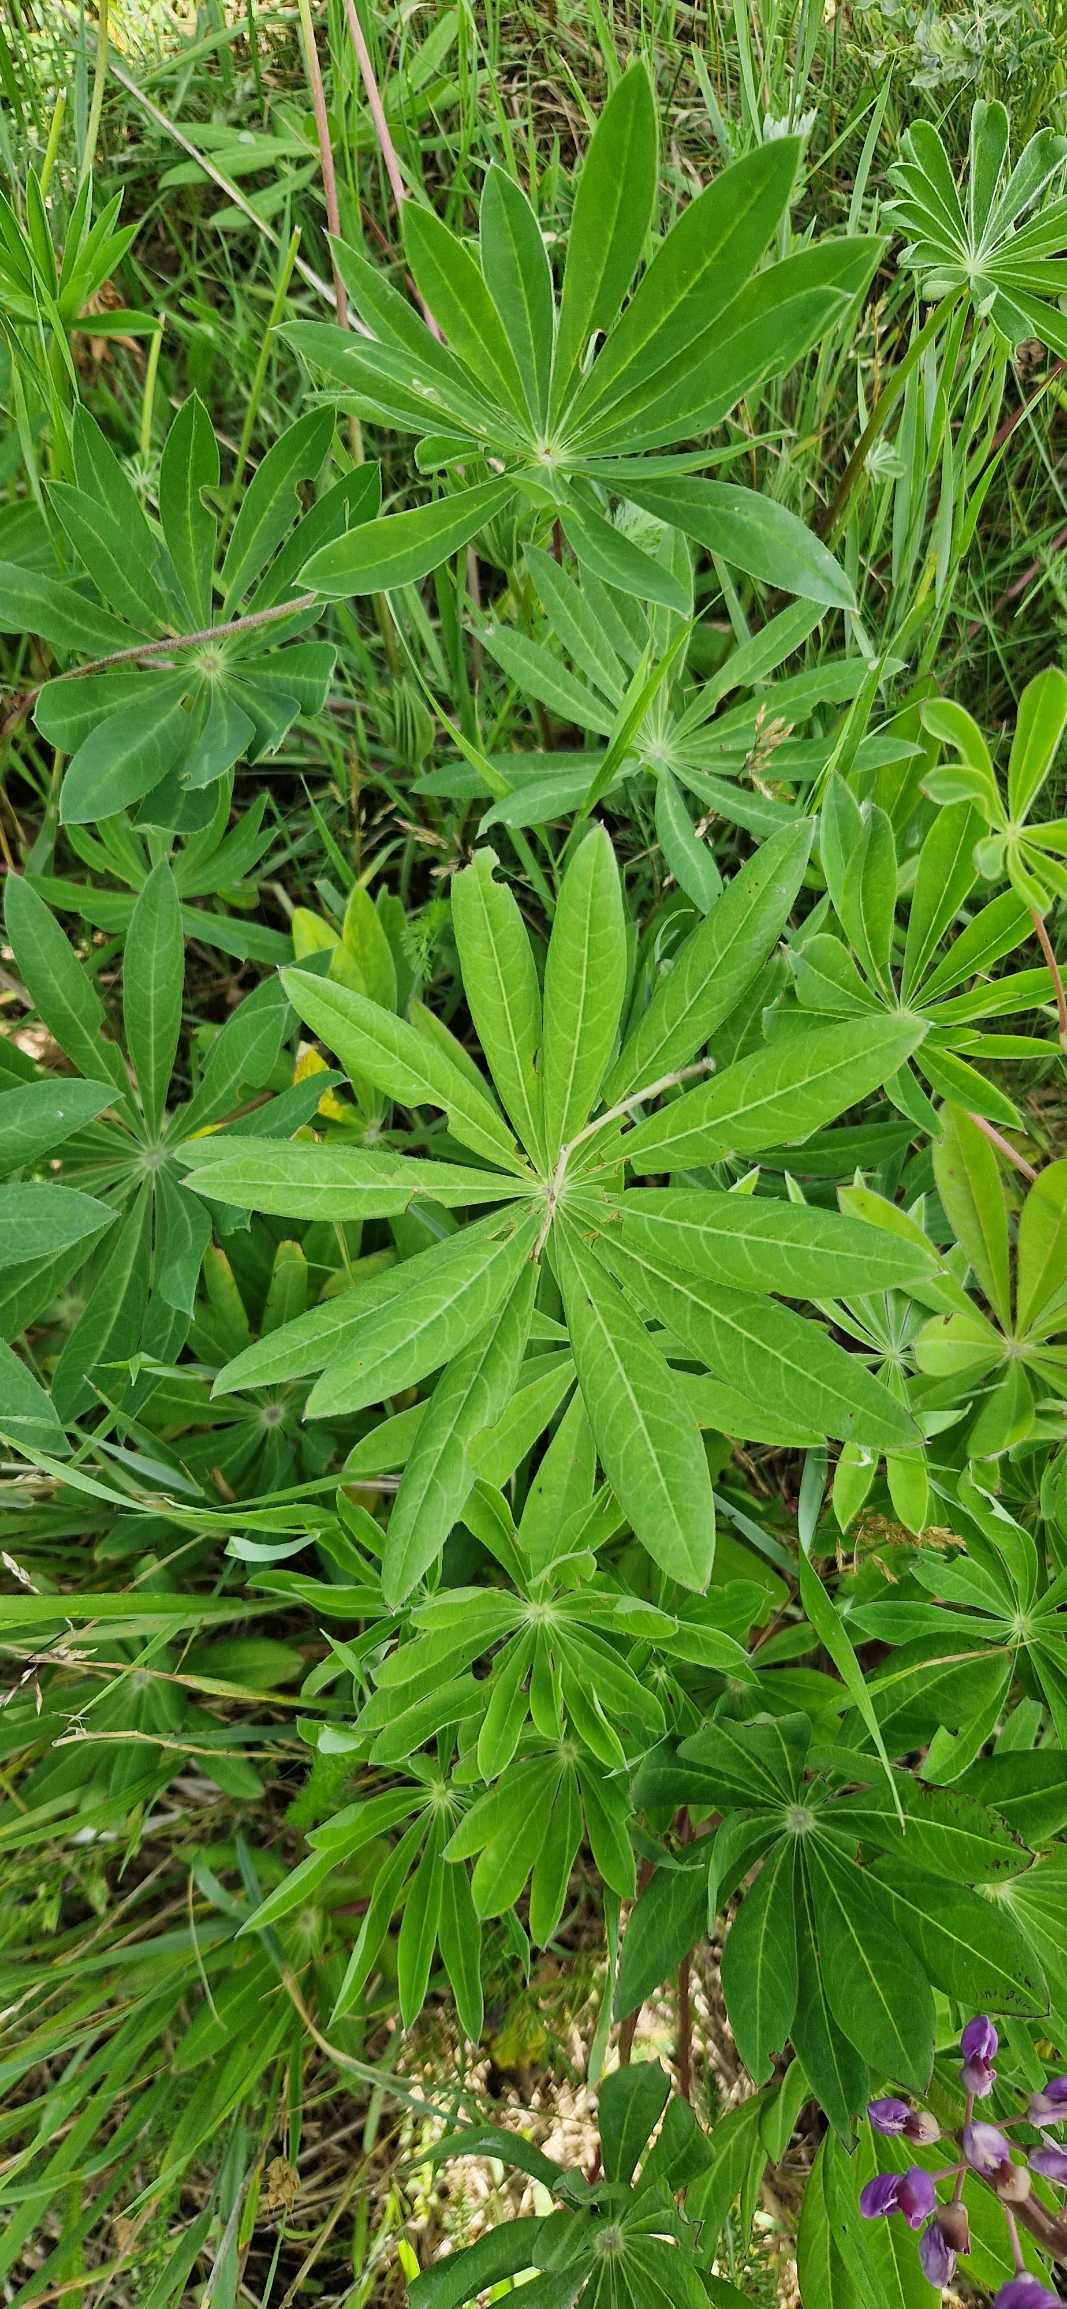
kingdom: Plantae
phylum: Tracheophyta
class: Magnoliopsida
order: Fabales
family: Fabaceae
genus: Lupinus
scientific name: Lupinus polyphyllus
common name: Mangebladet lupin
